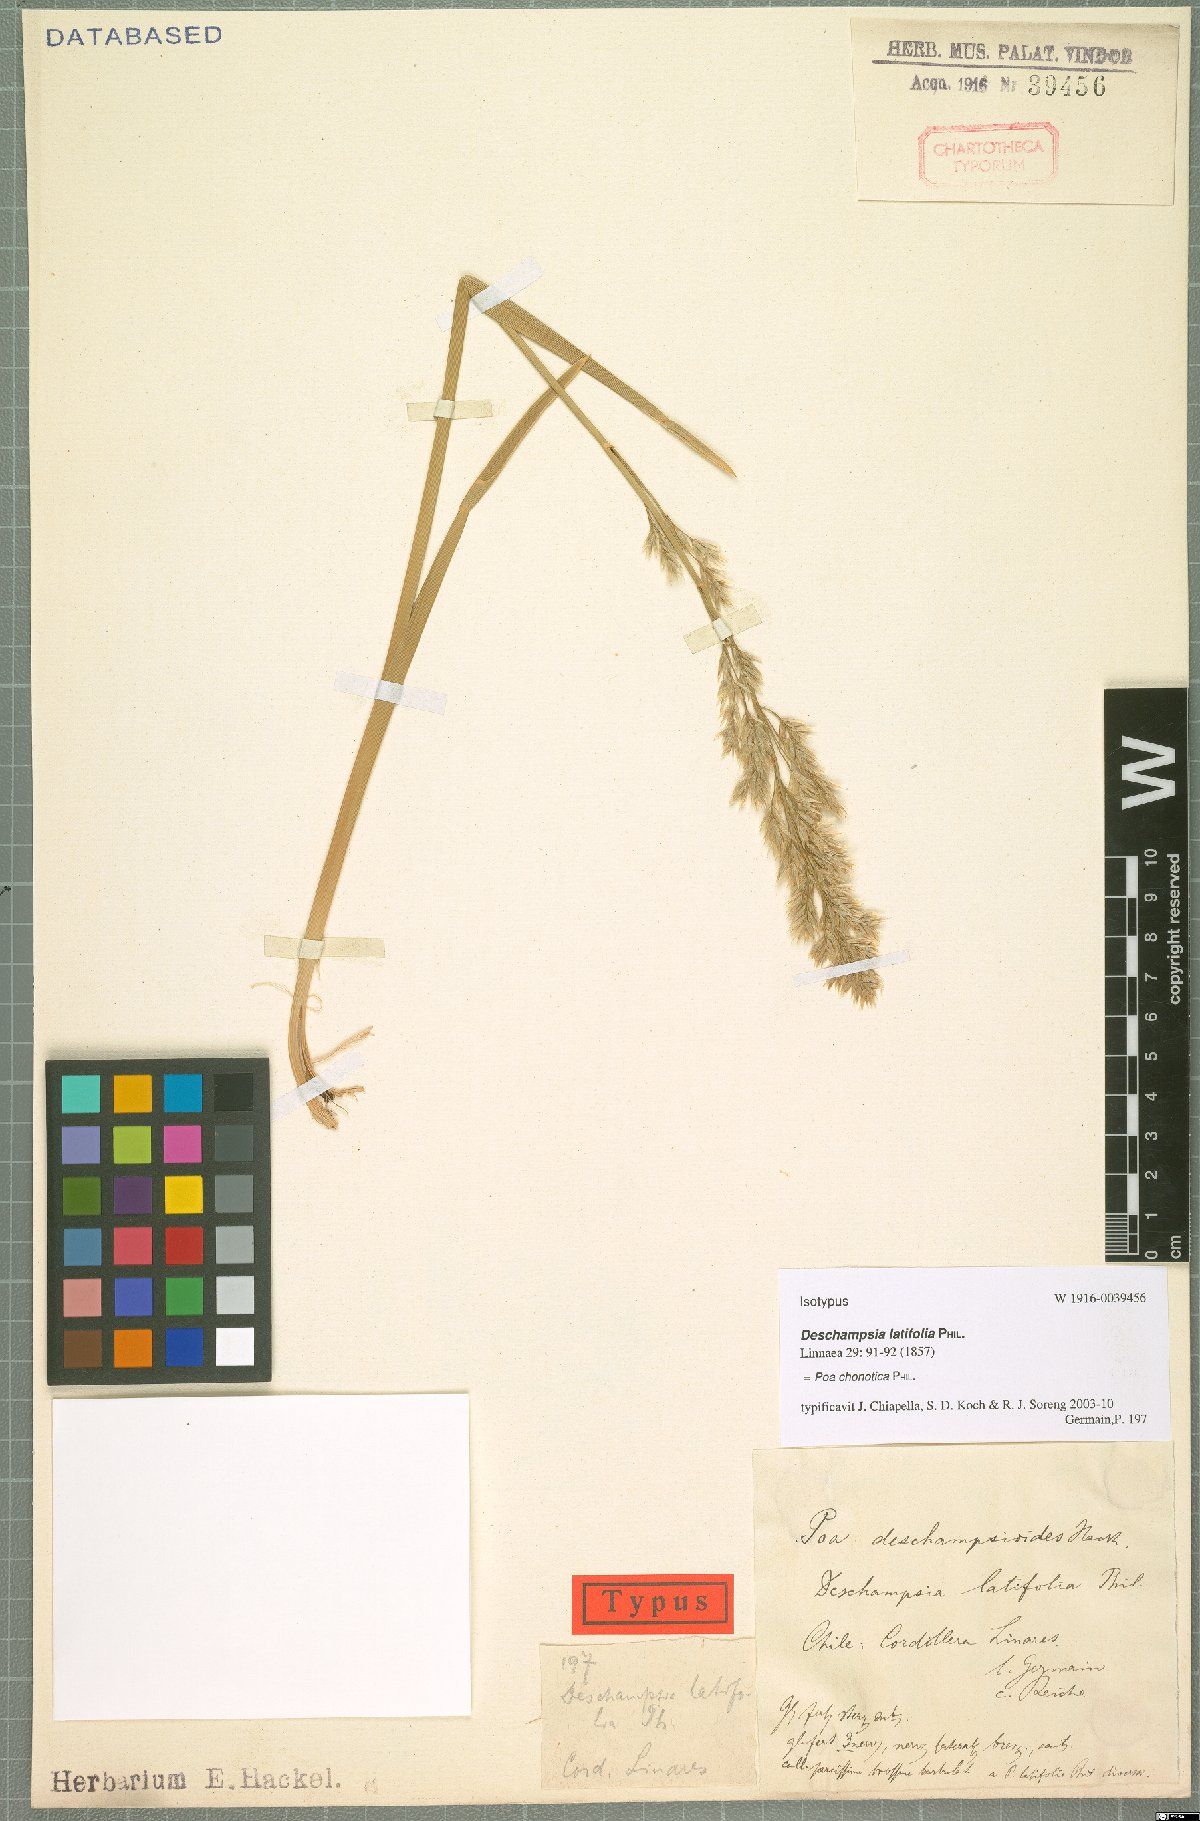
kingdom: Plantae
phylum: Tracheophyta
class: Liliopsida
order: Poales
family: Poaceae
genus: Nicoraepoa
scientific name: Nicoraepoa chonotica
